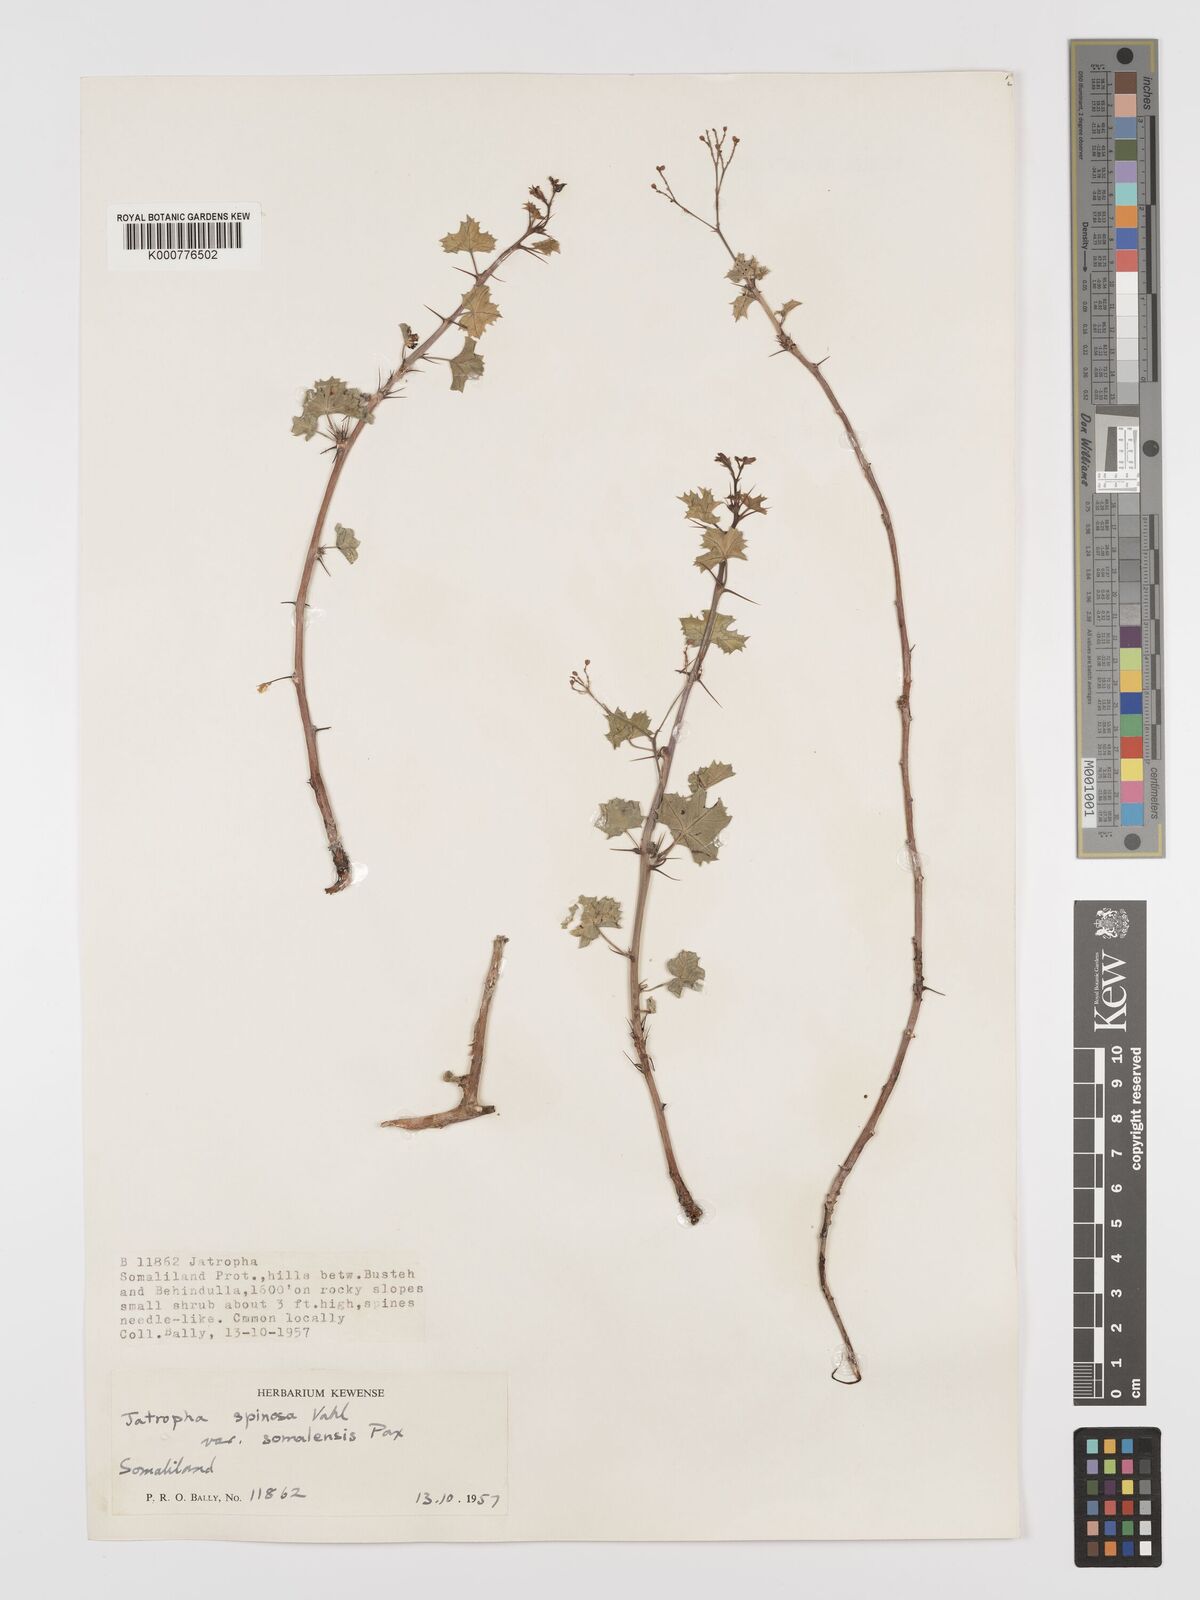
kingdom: Plantae
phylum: Tracheophyta
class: Magnoliopsida
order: Malpighiales
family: Euphorbiaceae
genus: Jatropha
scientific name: Jatropha spinosa
